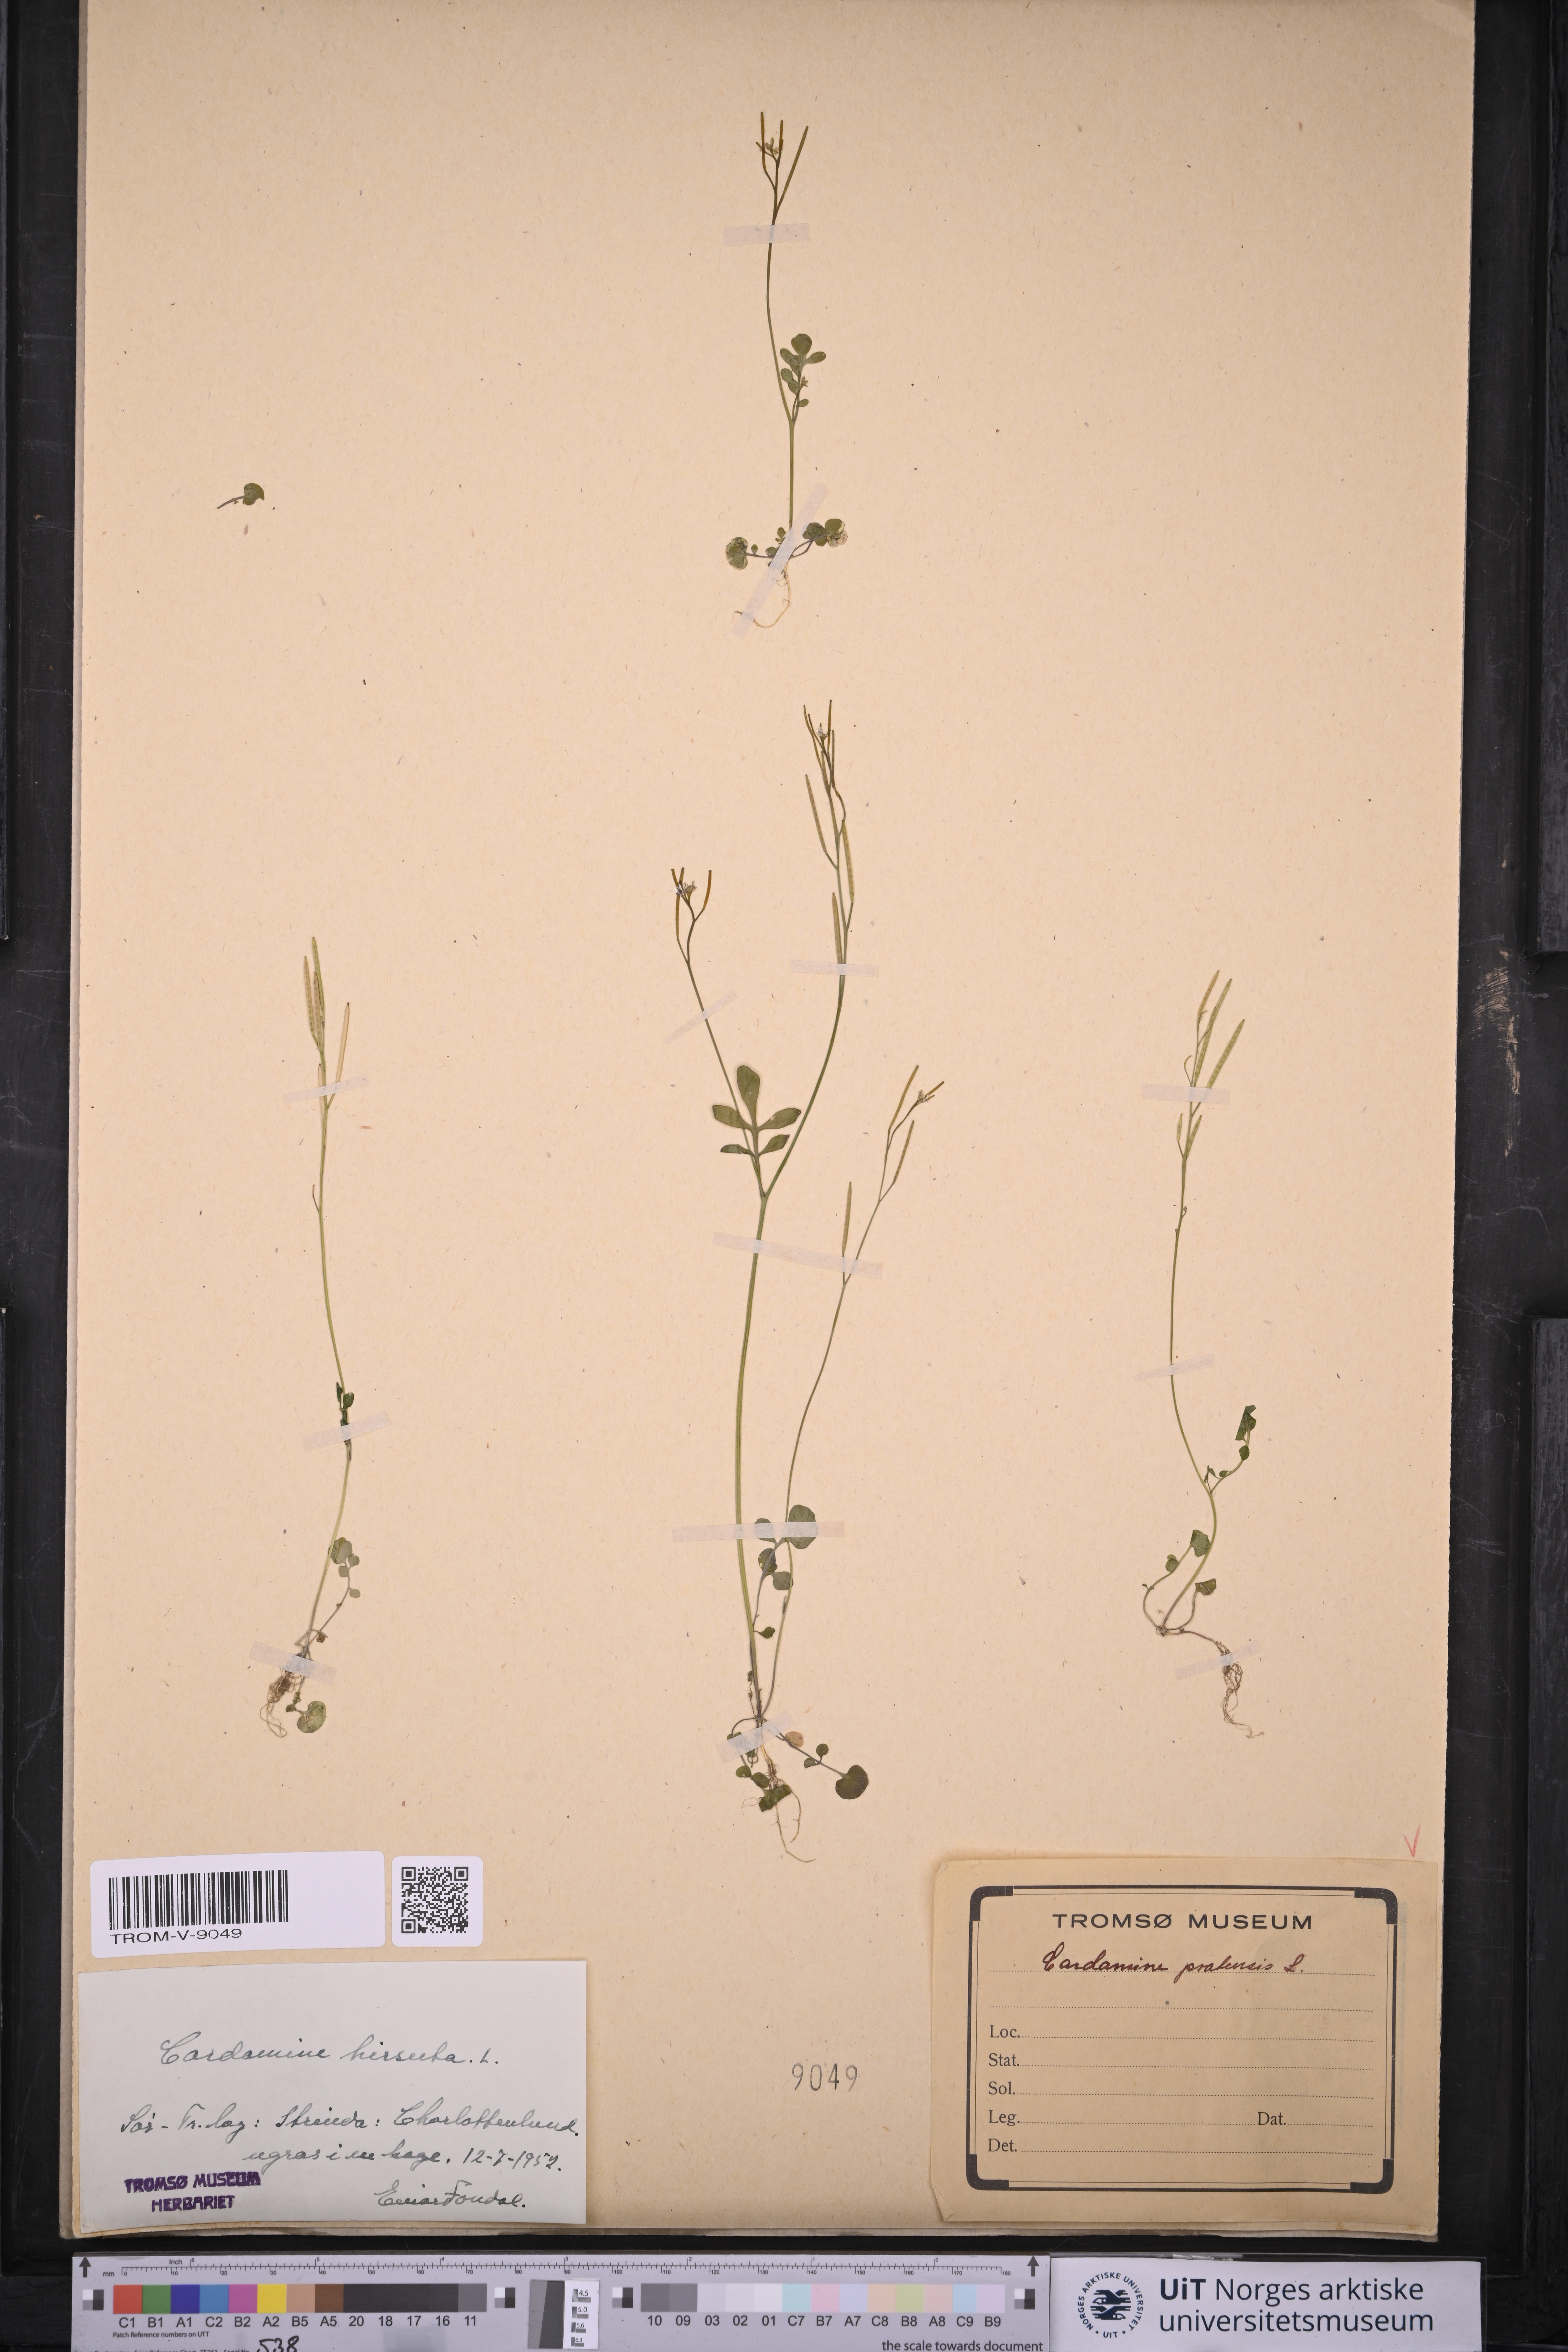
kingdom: Plantae
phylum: Tracheophyta
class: Magnoliopsida
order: Brassicales
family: Brassicaceae
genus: Cardamine
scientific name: Cardamine hirsuta
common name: Hairy bittercress
